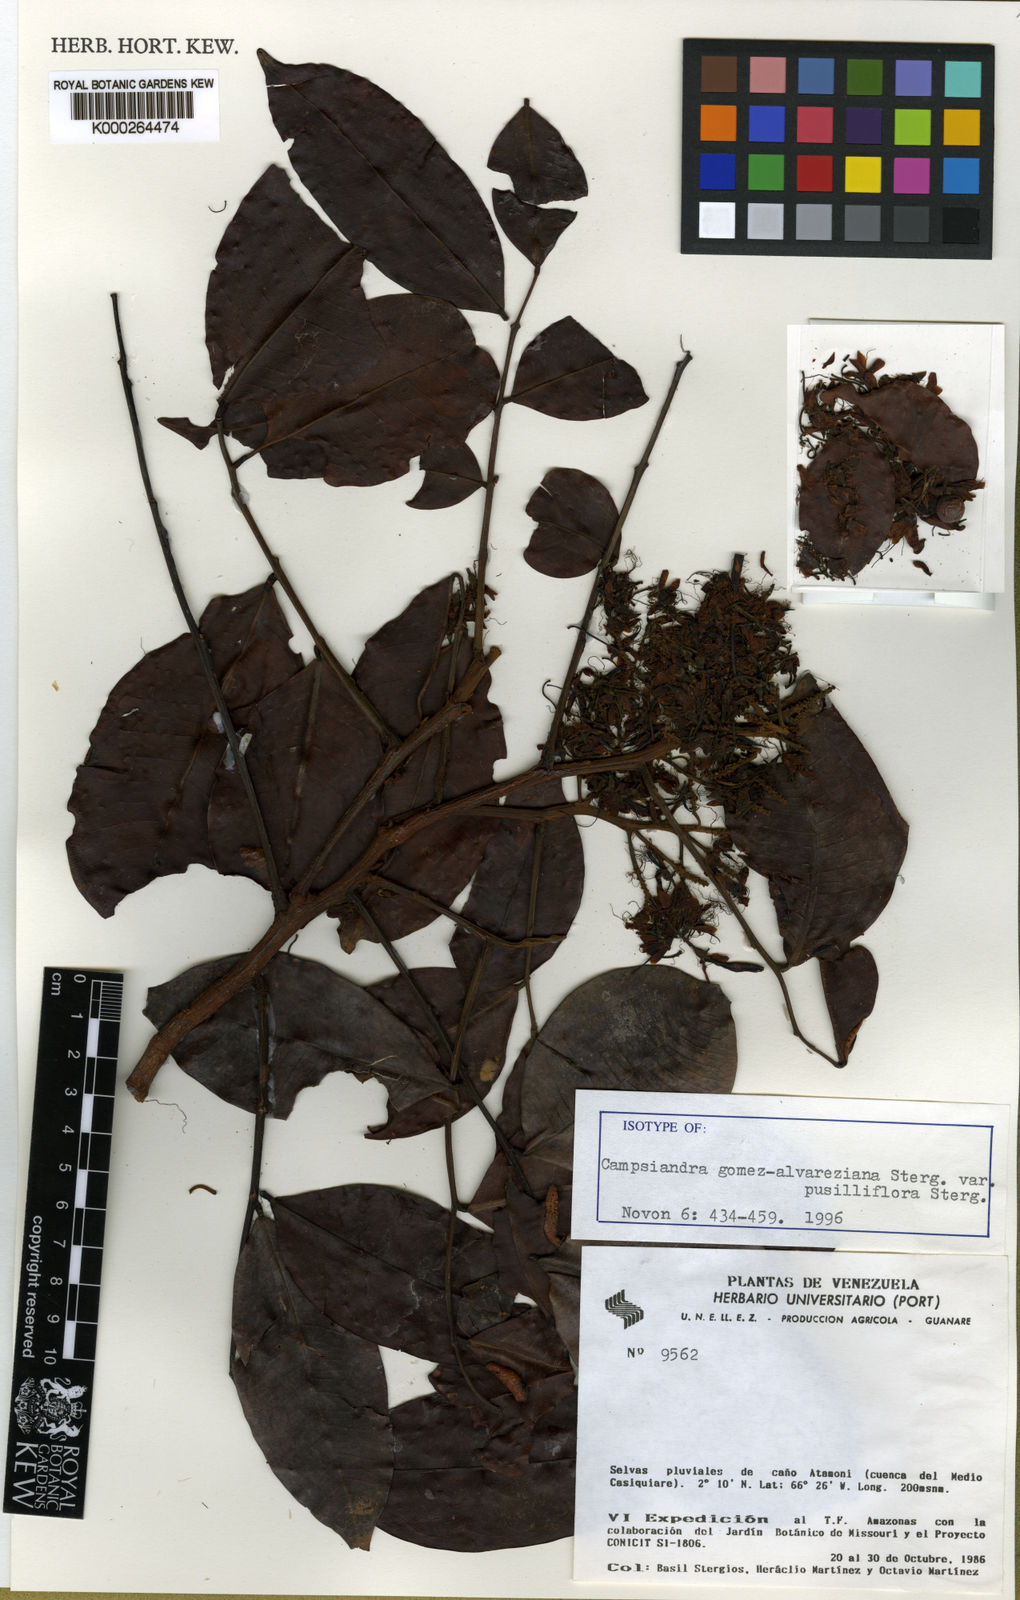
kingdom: Plantae
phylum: Tracheophyta
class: Magnoliopsida
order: Fabales
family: Fabaceae
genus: Campsiandra
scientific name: Campsiandra gomez-alvareziana
